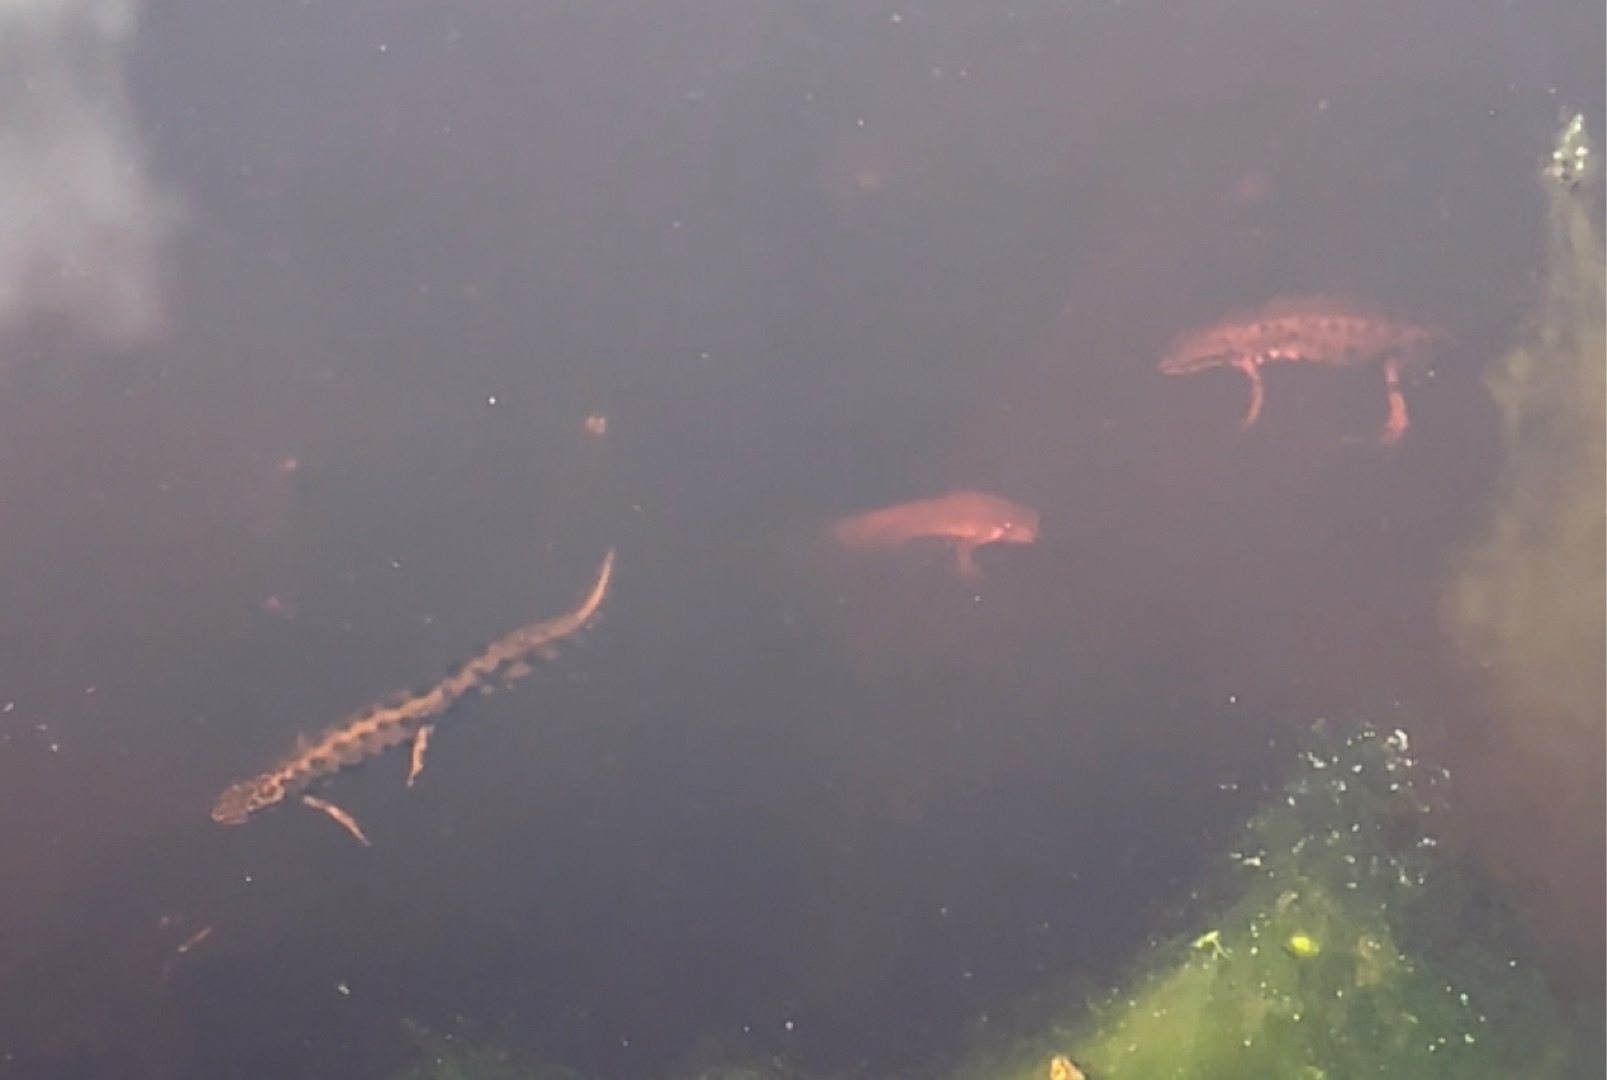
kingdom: Animalia
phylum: Chordata
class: Amphibia
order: Caudata
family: Salamandridae
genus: Lissotriton
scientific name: Lissotriton vulgaris
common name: Lille vandsalamander
